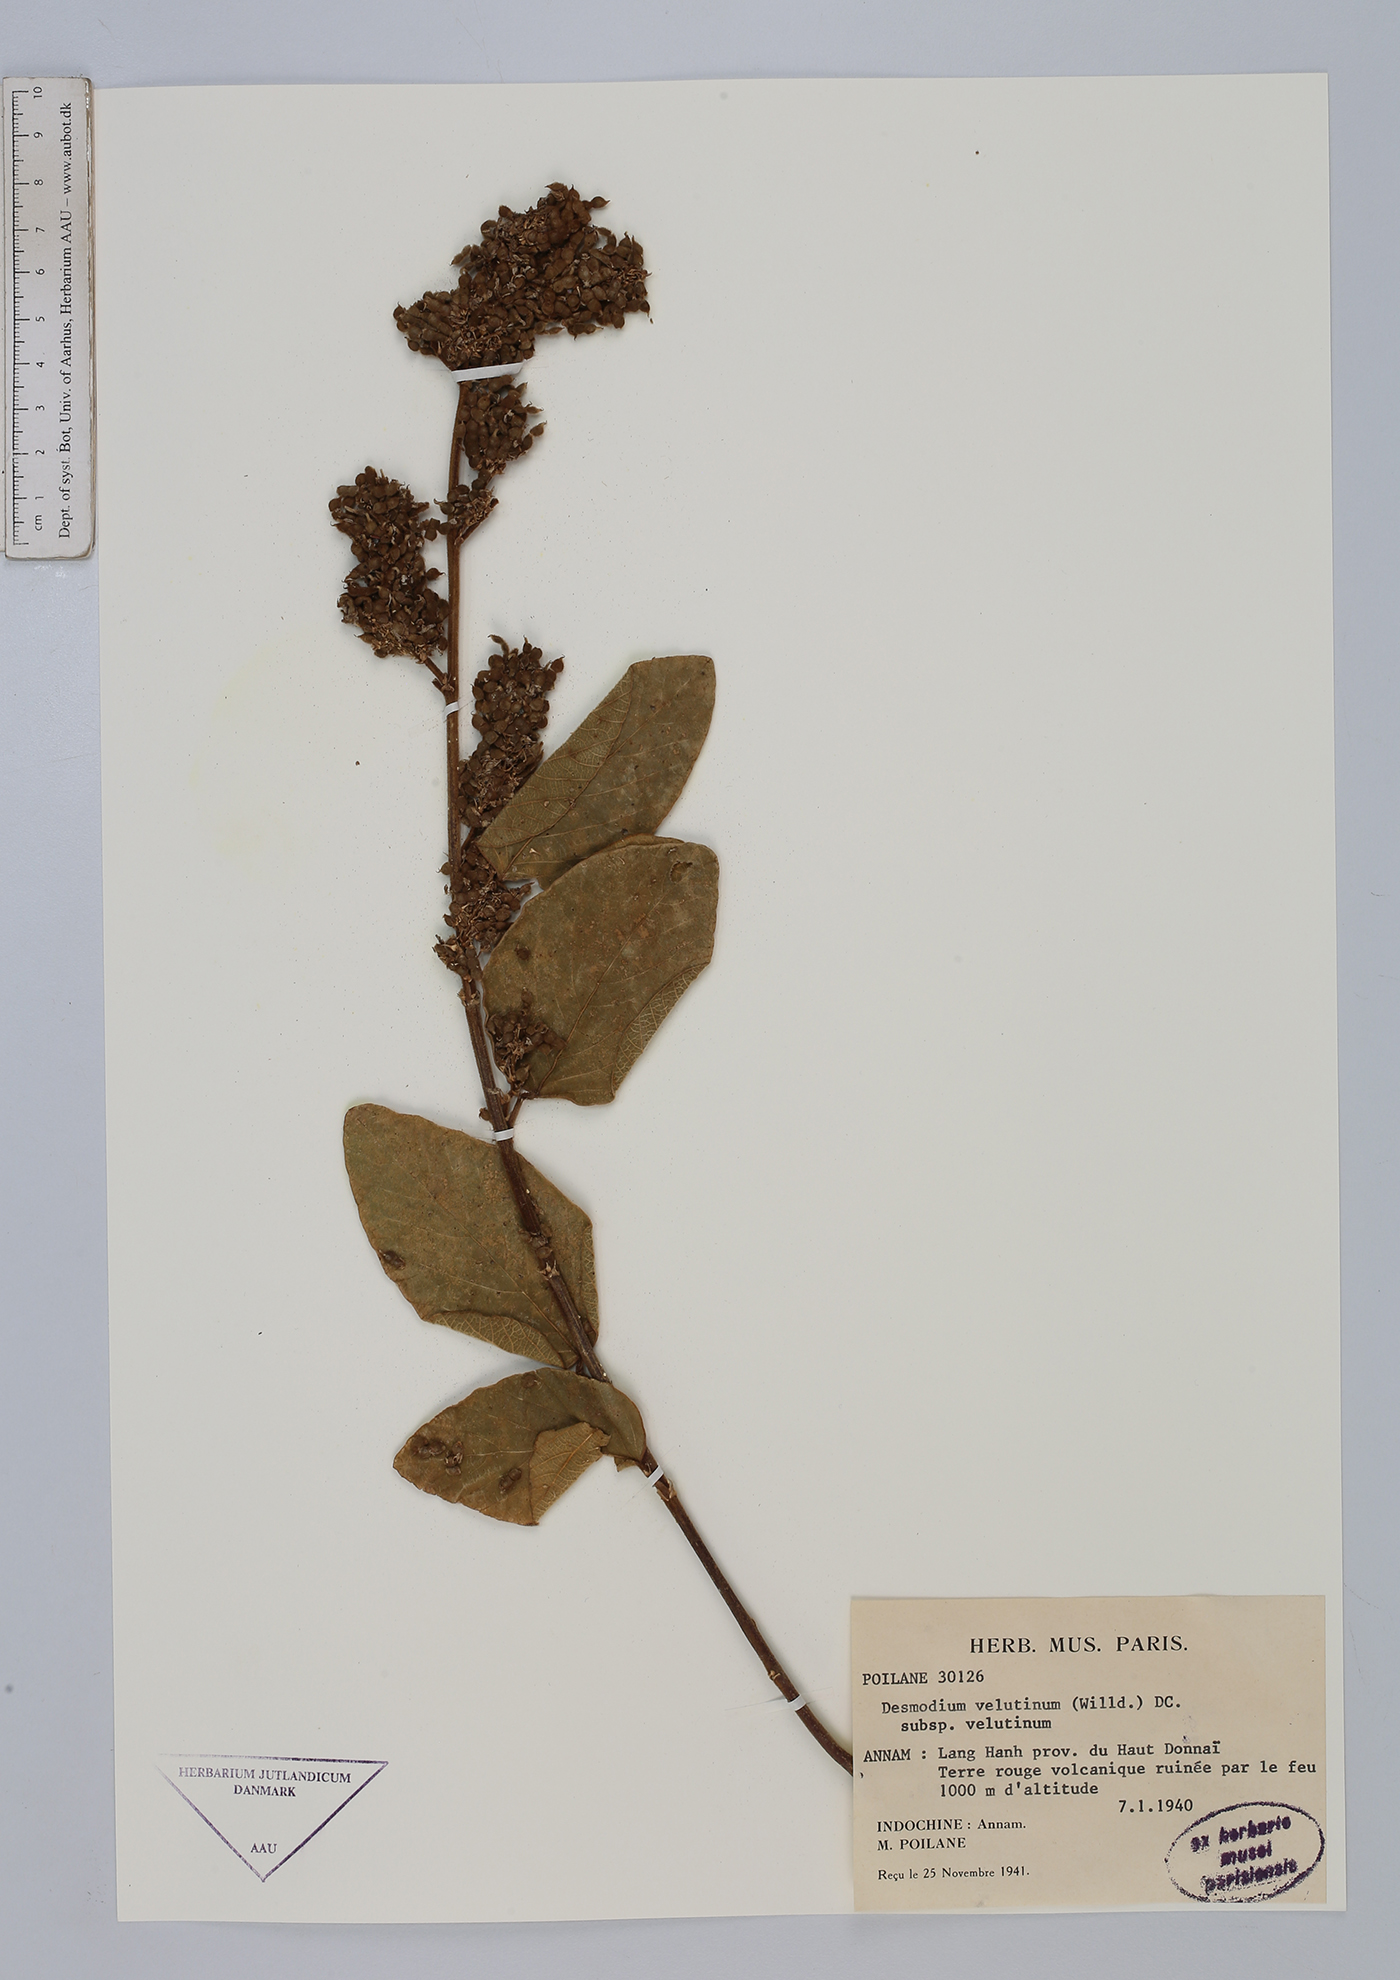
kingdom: Plantae
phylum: Tracheophyta
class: Magnoliopsida
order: Fabales
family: Fabaceae
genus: Polhillides
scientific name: Polhillides velutina
